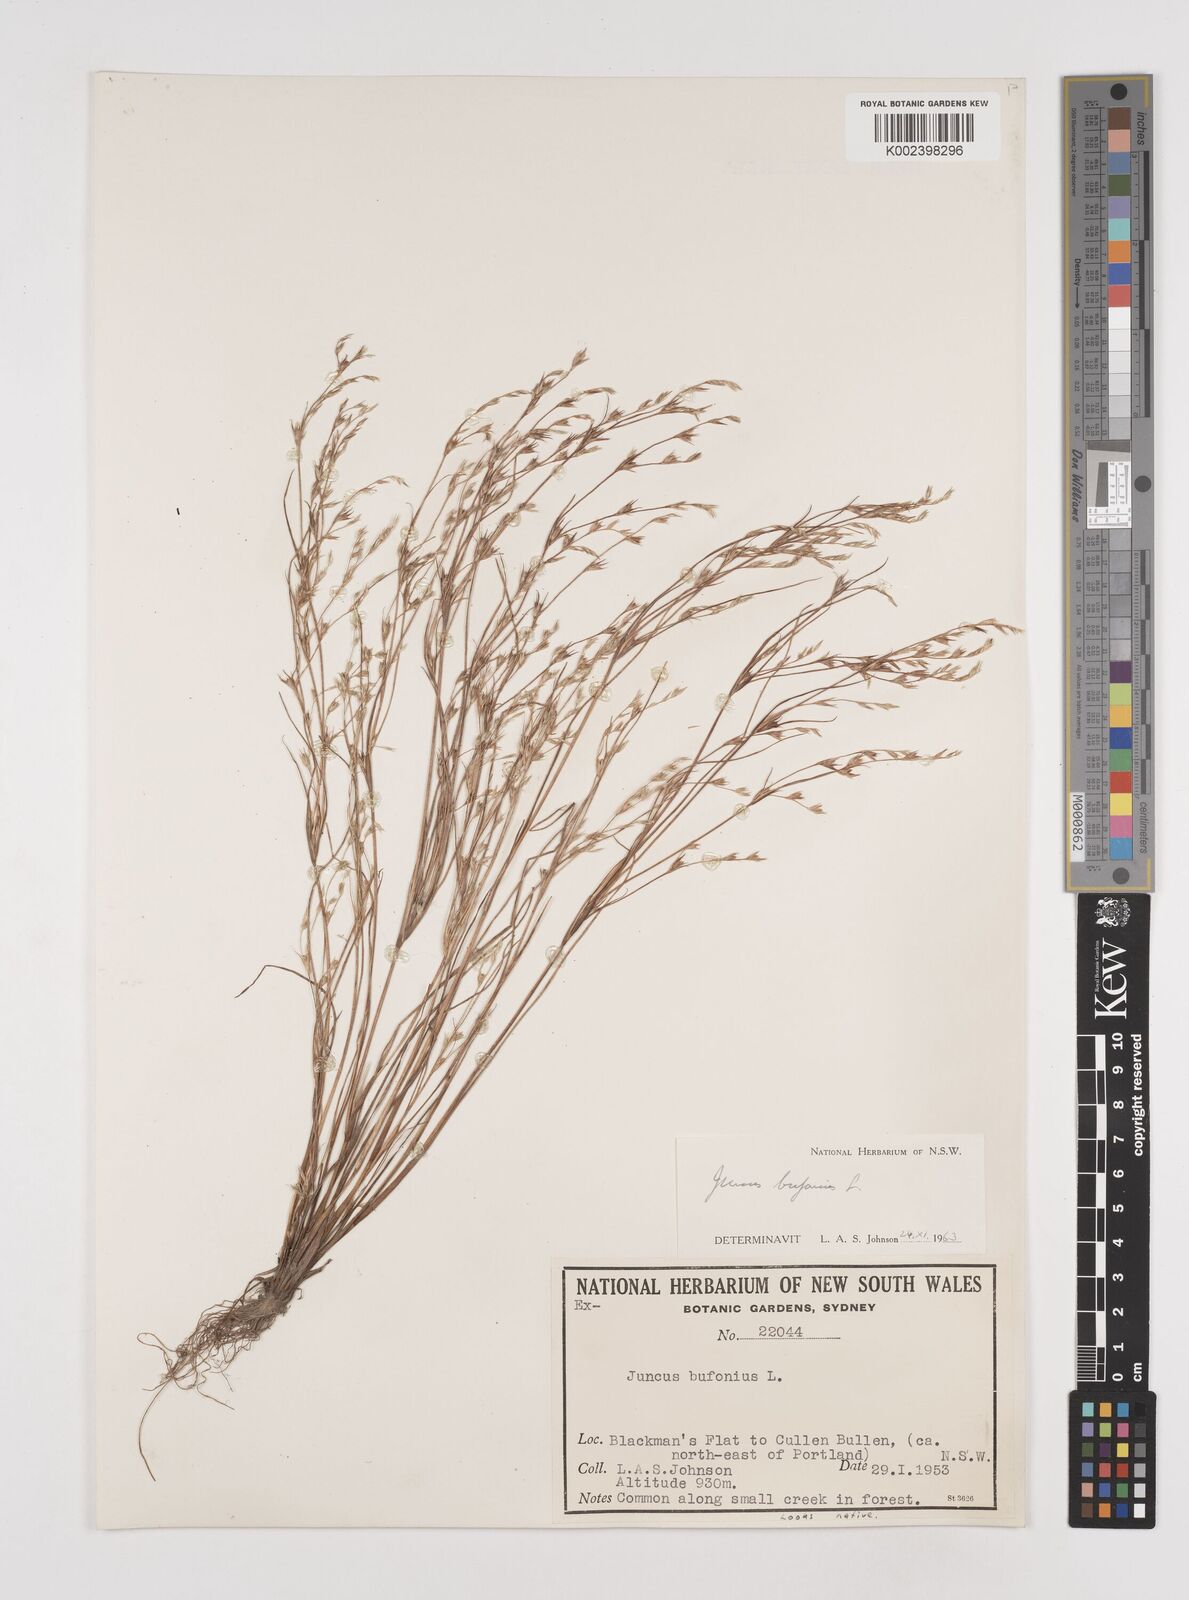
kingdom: Plantae
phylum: Tracheophyta
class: Liliopsida
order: Poales
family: Juncaceae
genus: Juncus
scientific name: Juncus bufonius
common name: Toad rush
